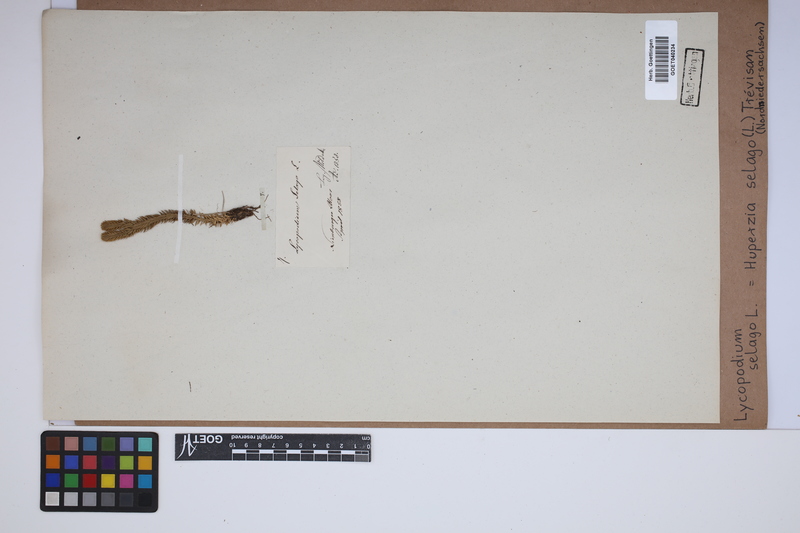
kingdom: Plantae
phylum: Tracheophyta
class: Lycopodiopsida
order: Lycopodiales
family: Lycopodiaceae
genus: Huperzia
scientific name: Huperzia selago
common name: Northern firmoss
